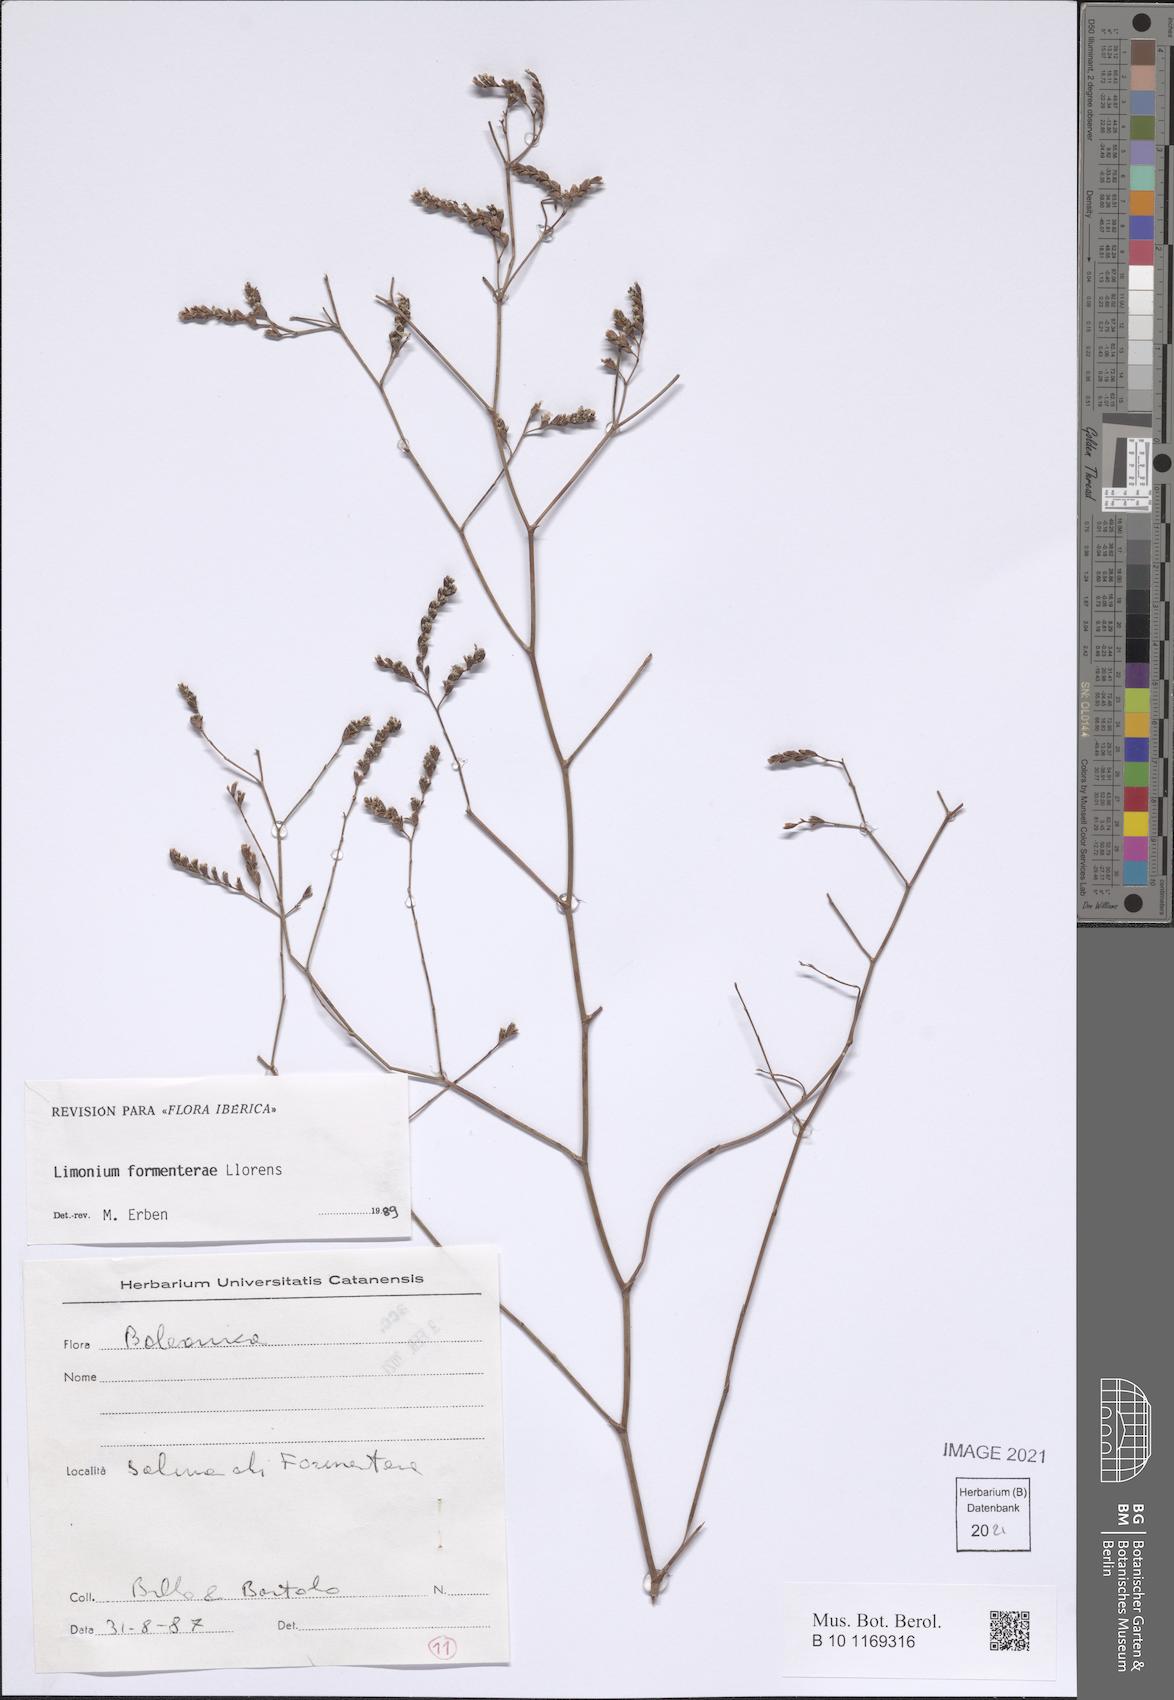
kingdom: Plantae
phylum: Tracheophyta
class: Magnoliopsida
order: Caryophyllales
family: Plumbaginaceae
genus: Limonium
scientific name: Limonium biflorum
